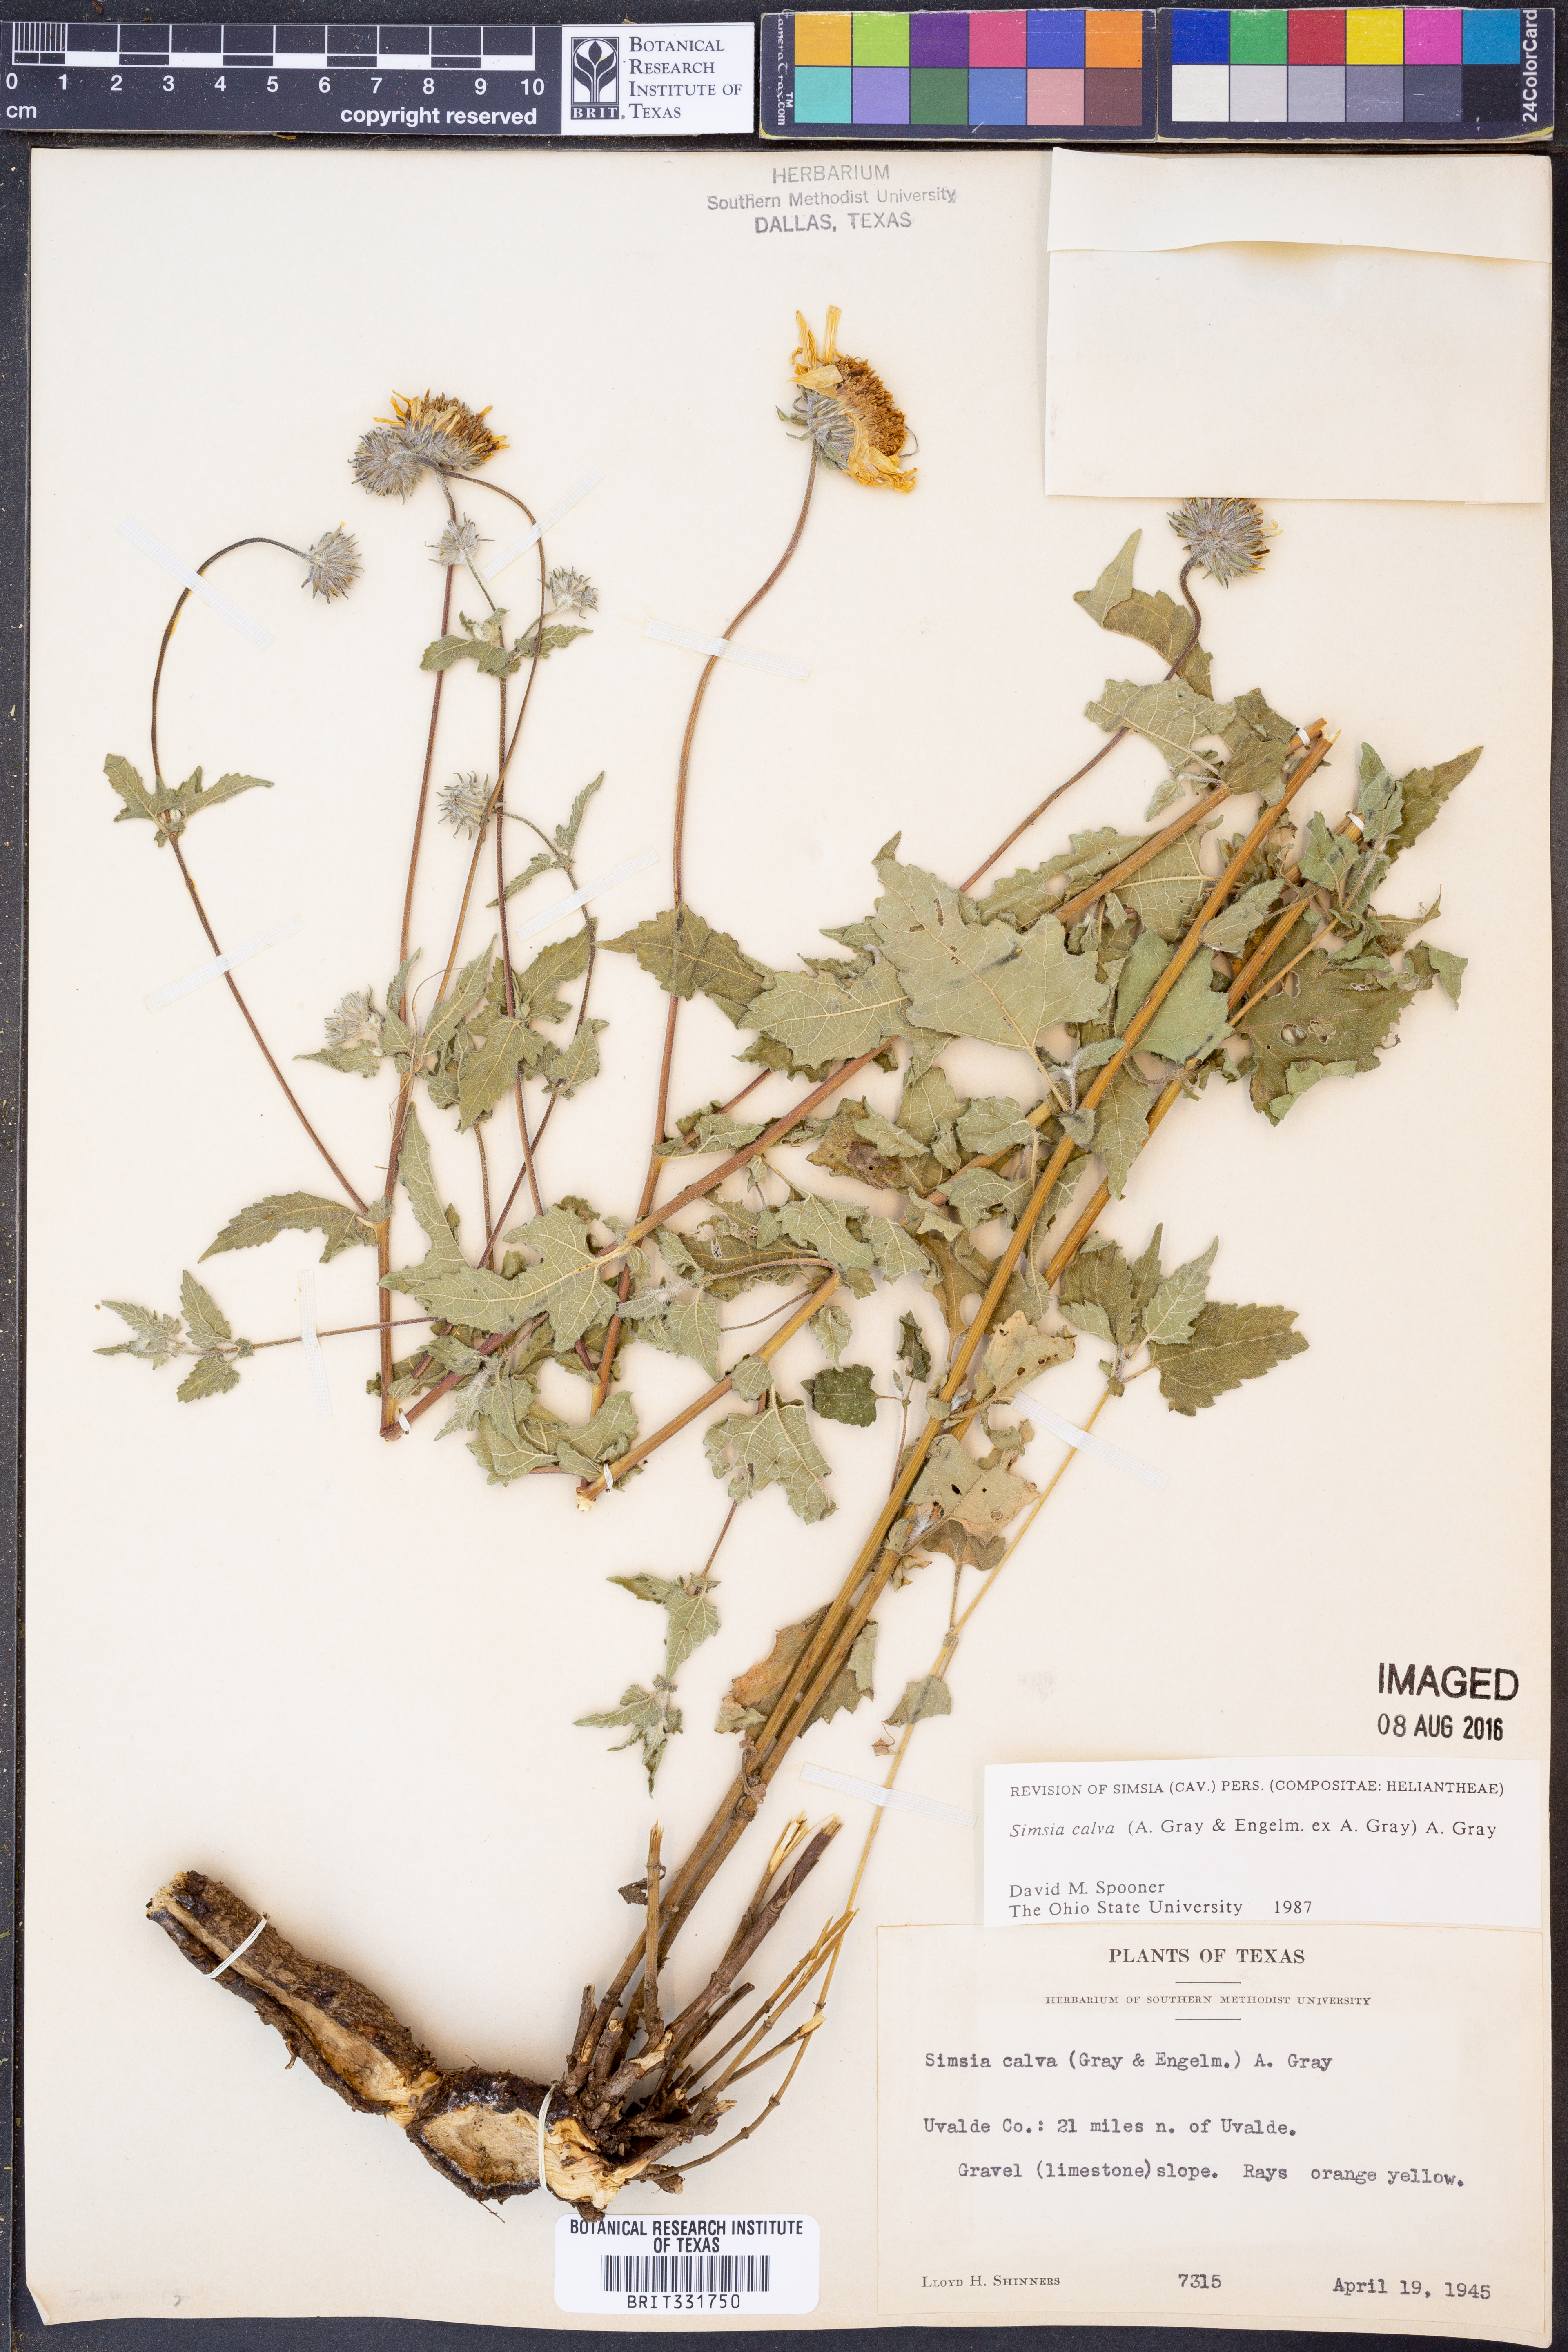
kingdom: Plantae
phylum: Tracheophyta
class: Magnoliopsida
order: Asterales
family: Asteraceae
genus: Simsia
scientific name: Simsia calva
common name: Awnless bush-sunflower
